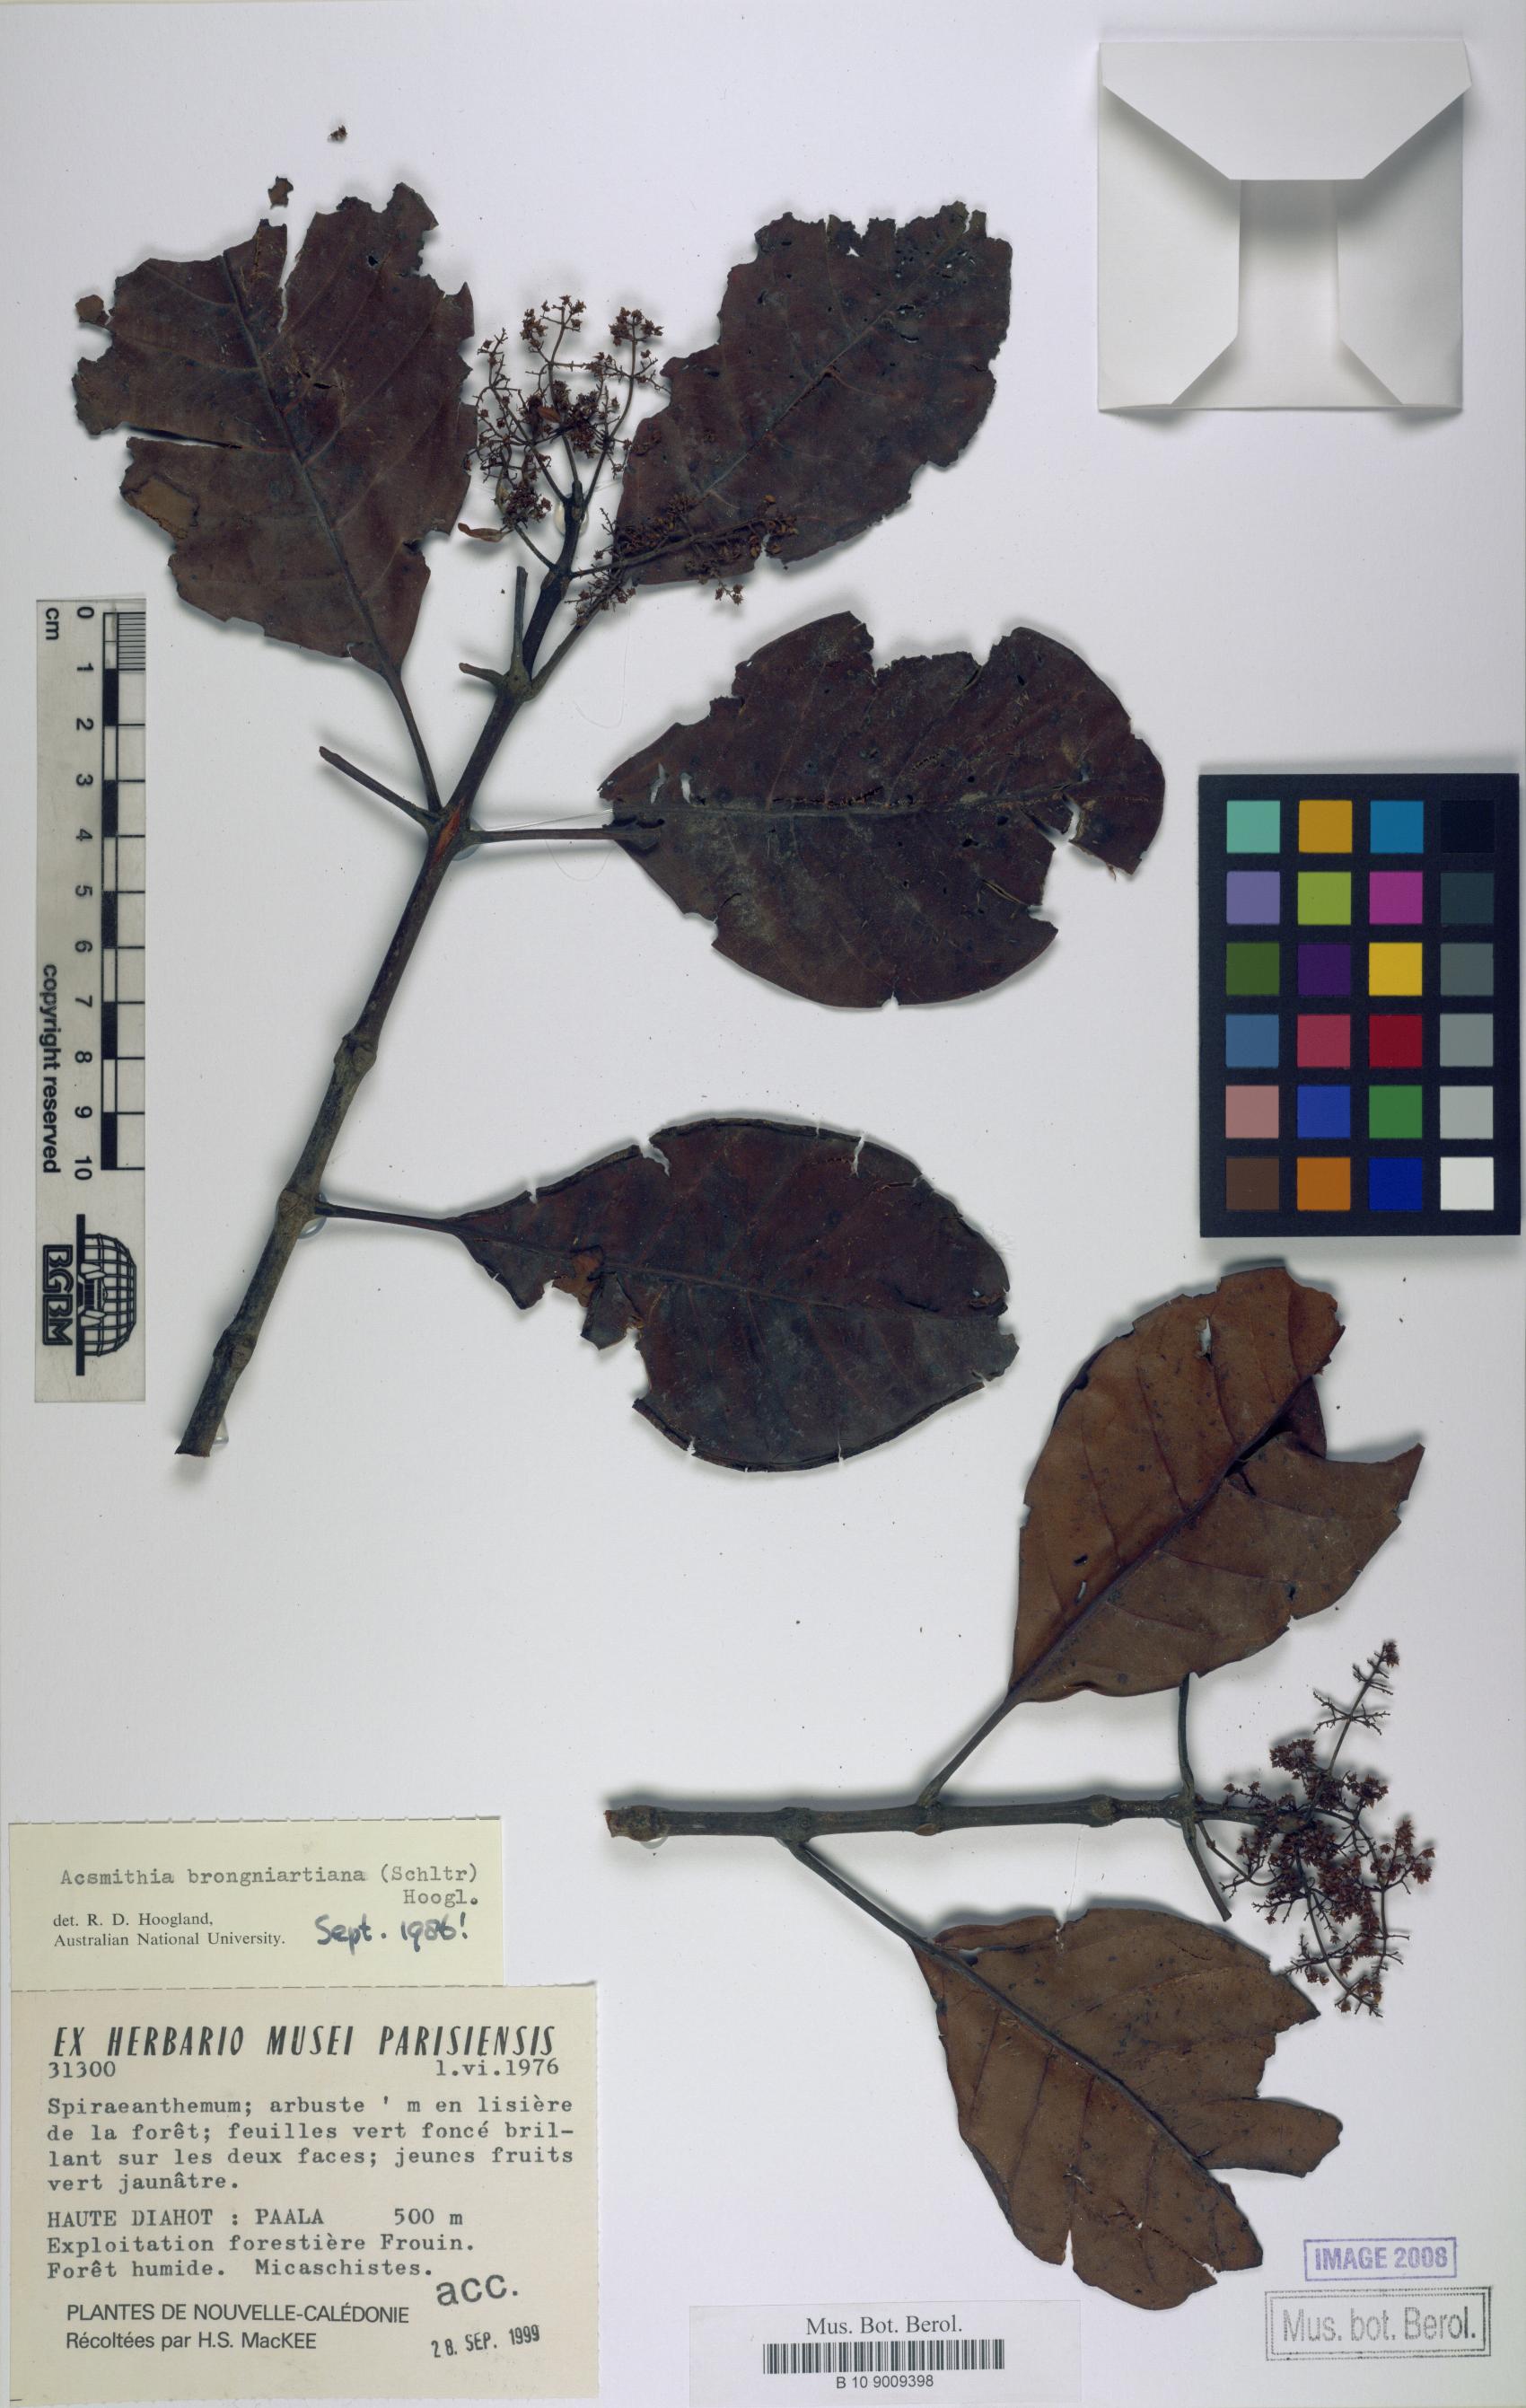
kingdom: Plantae
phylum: Tracheophyta
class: Magnoliopsida
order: Oxalidales
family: Cunoniaceae
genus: Spiraeanthemum
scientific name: Spiraeanthemum brongniartianum
